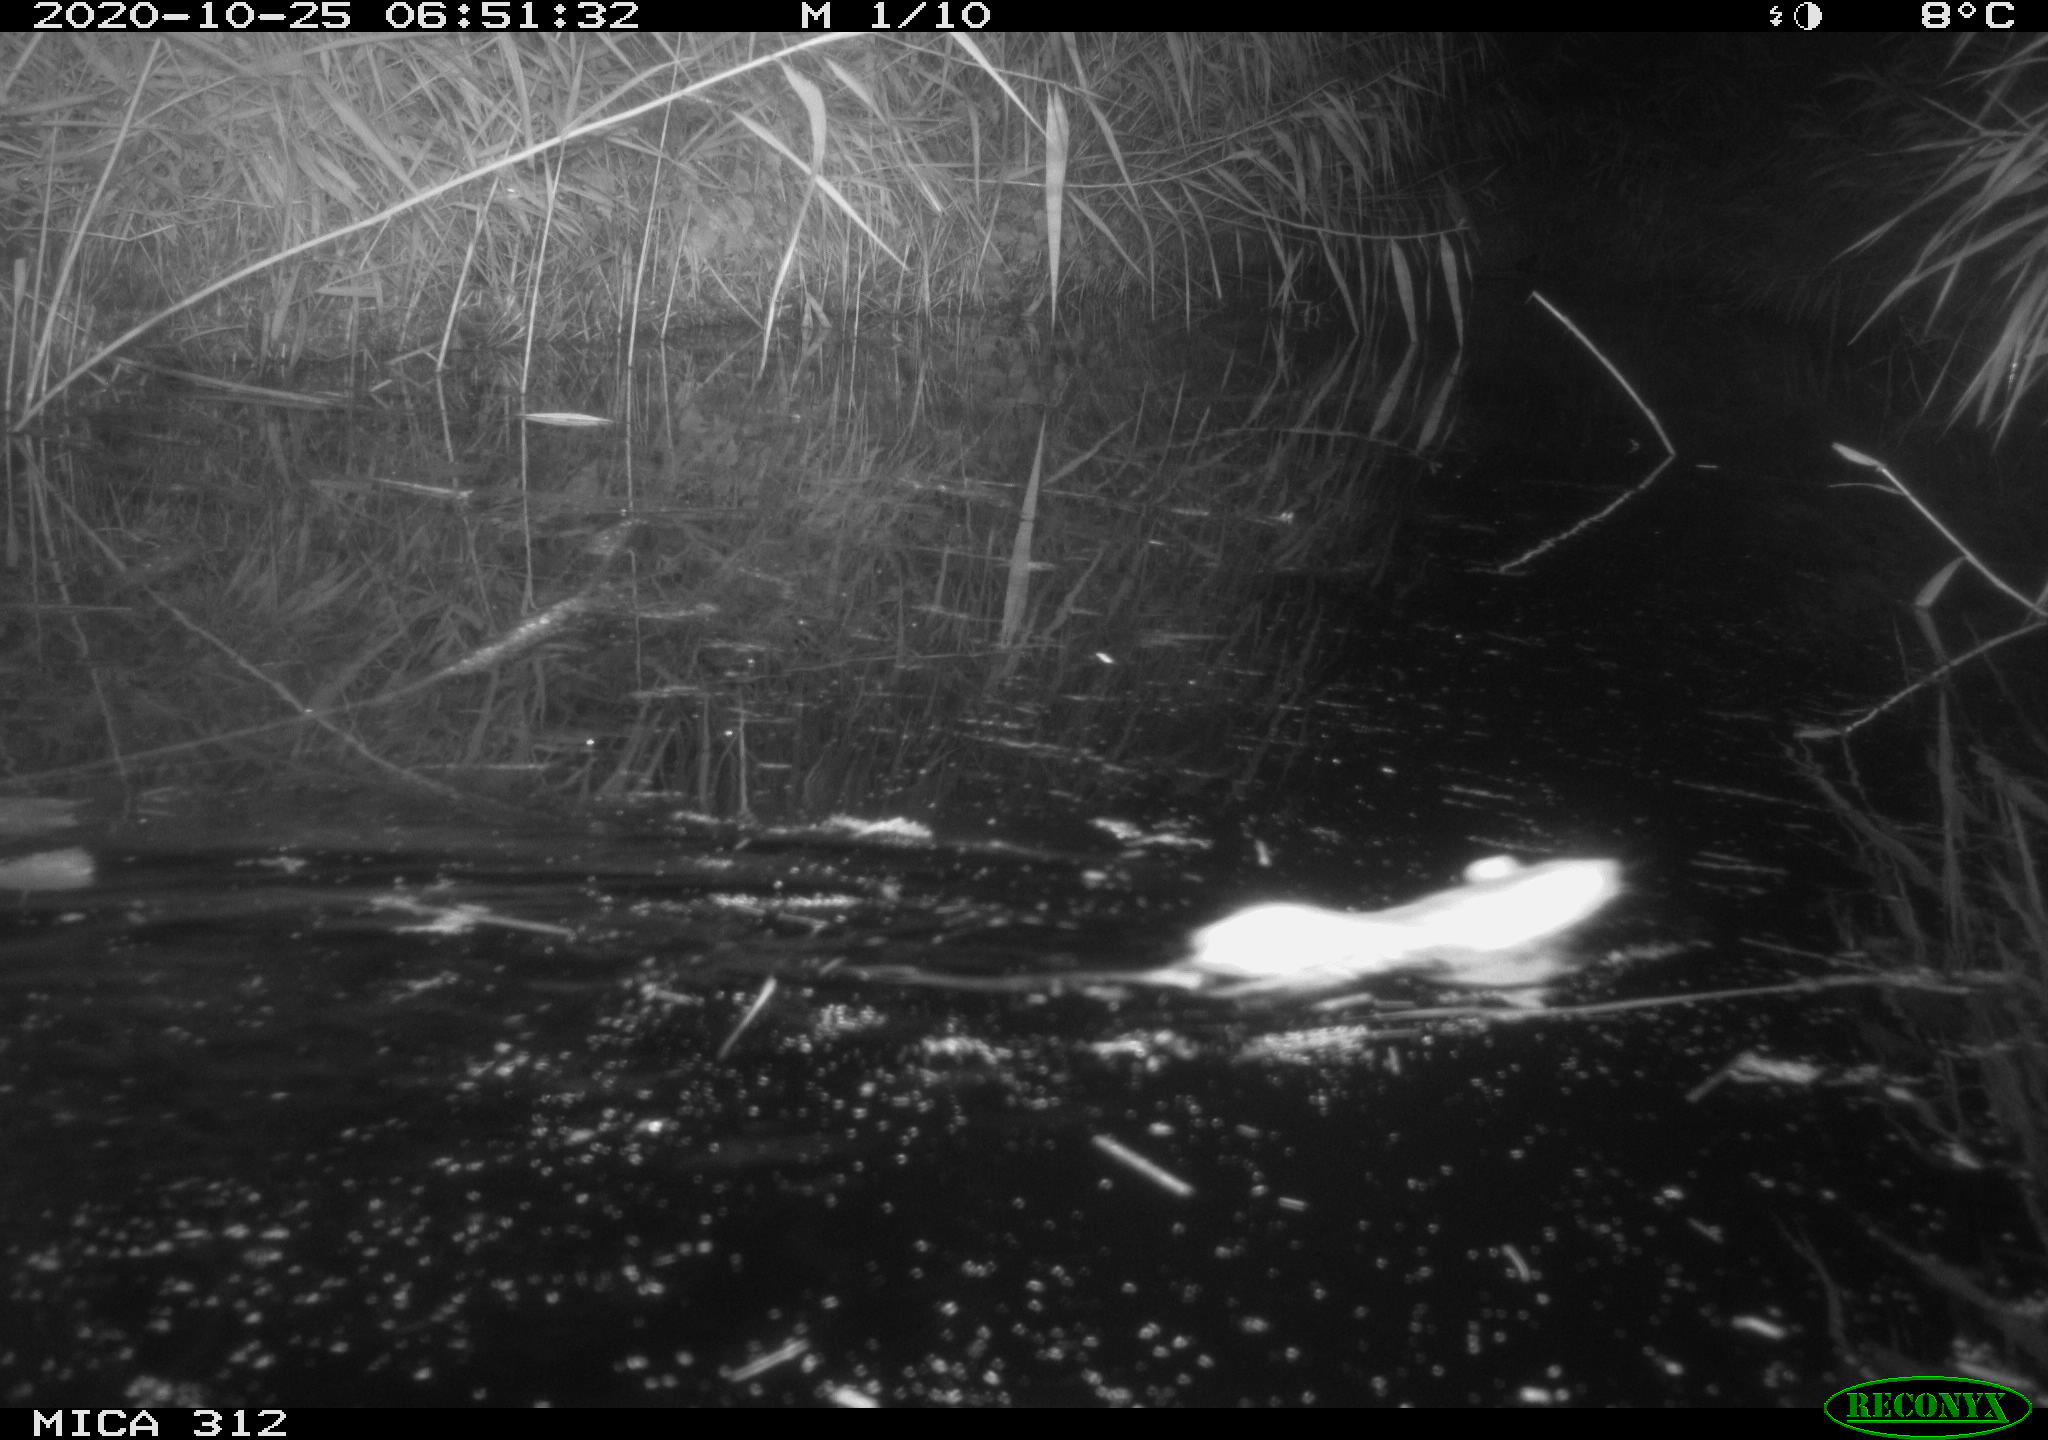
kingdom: Animalia
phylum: Chordata
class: Mammalia
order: Rodentia
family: Muridae
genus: Rattus
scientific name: Rattus norvegicus
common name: Brown rat
